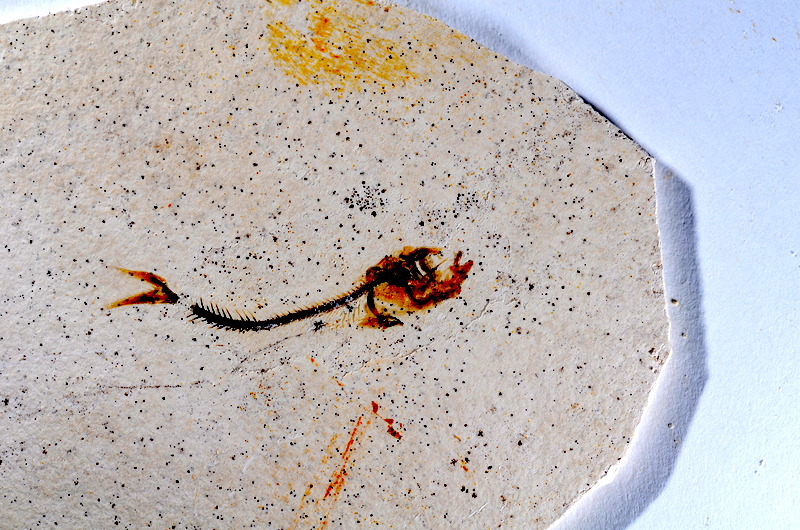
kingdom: Animalia
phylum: Chordata
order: Salmoniformes
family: Orthogonikleithridae
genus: Orthogonikleithrus
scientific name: Orthogonikleithrus hoelli
